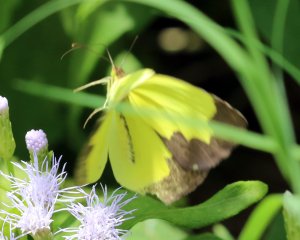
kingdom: Animalia
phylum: Arthropoda
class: Insecta
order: Lepidoptera
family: Pieridae
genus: Eurema
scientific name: Eurema boisduvaliana
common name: Boisduval's Yellow
